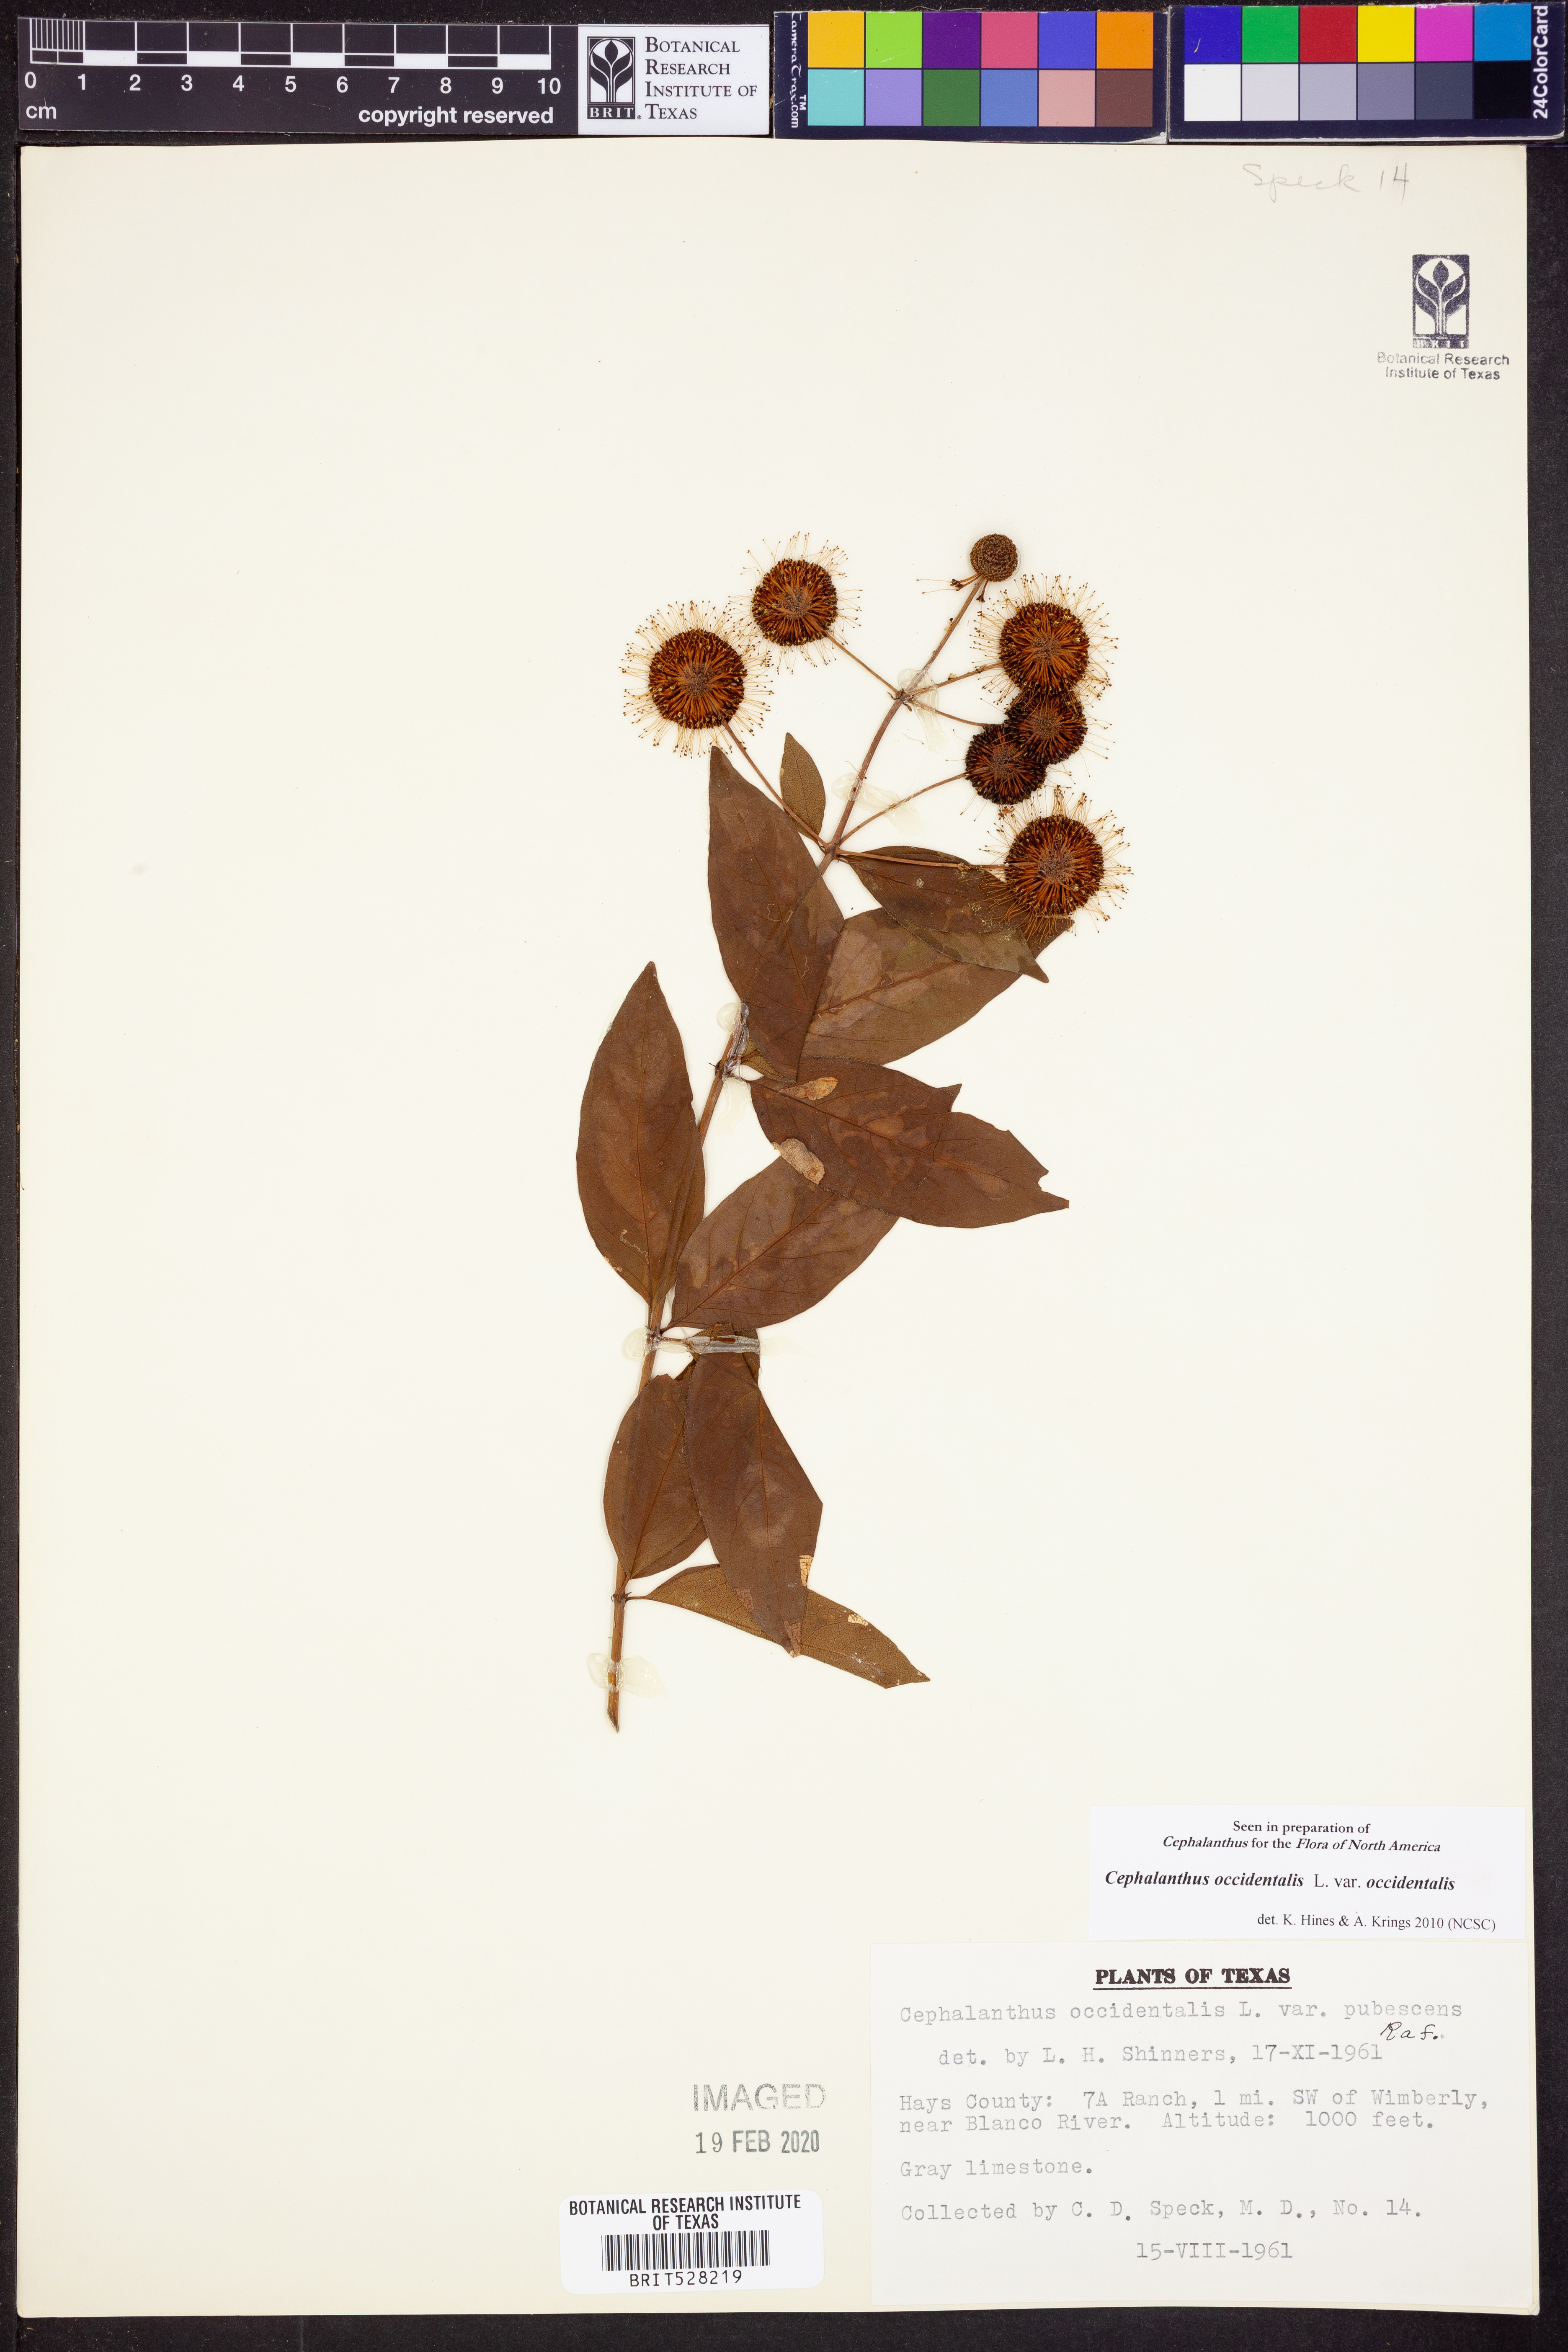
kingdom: Plantae
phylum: Tracheophyta
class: Magnoliopsida
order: Gentianales
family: Rubiaceae
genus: Cephalanthus
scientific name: Cephalanthus occidentalis
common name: Button-willow
